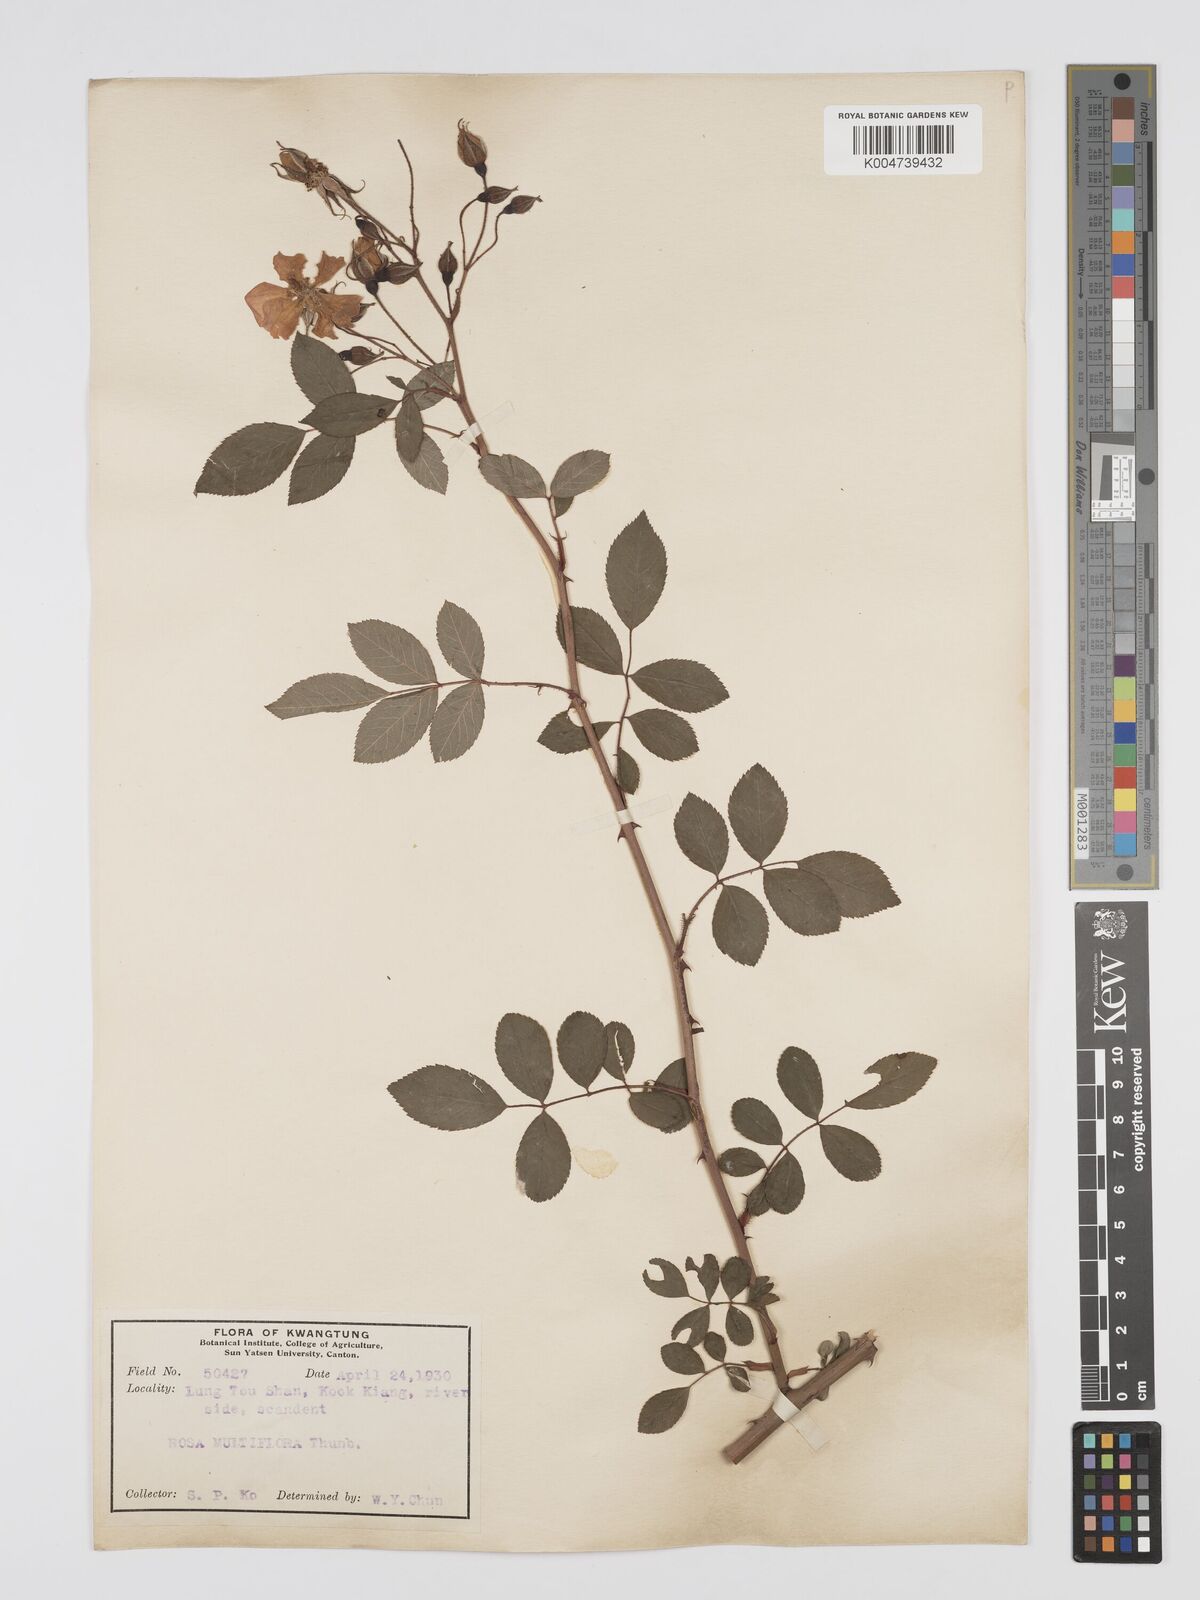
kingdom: Plantae
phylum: Tracheophyta
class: Magnoliopsida
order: Rosales
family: Rosaceae
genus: Rosa
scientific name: Rosa
